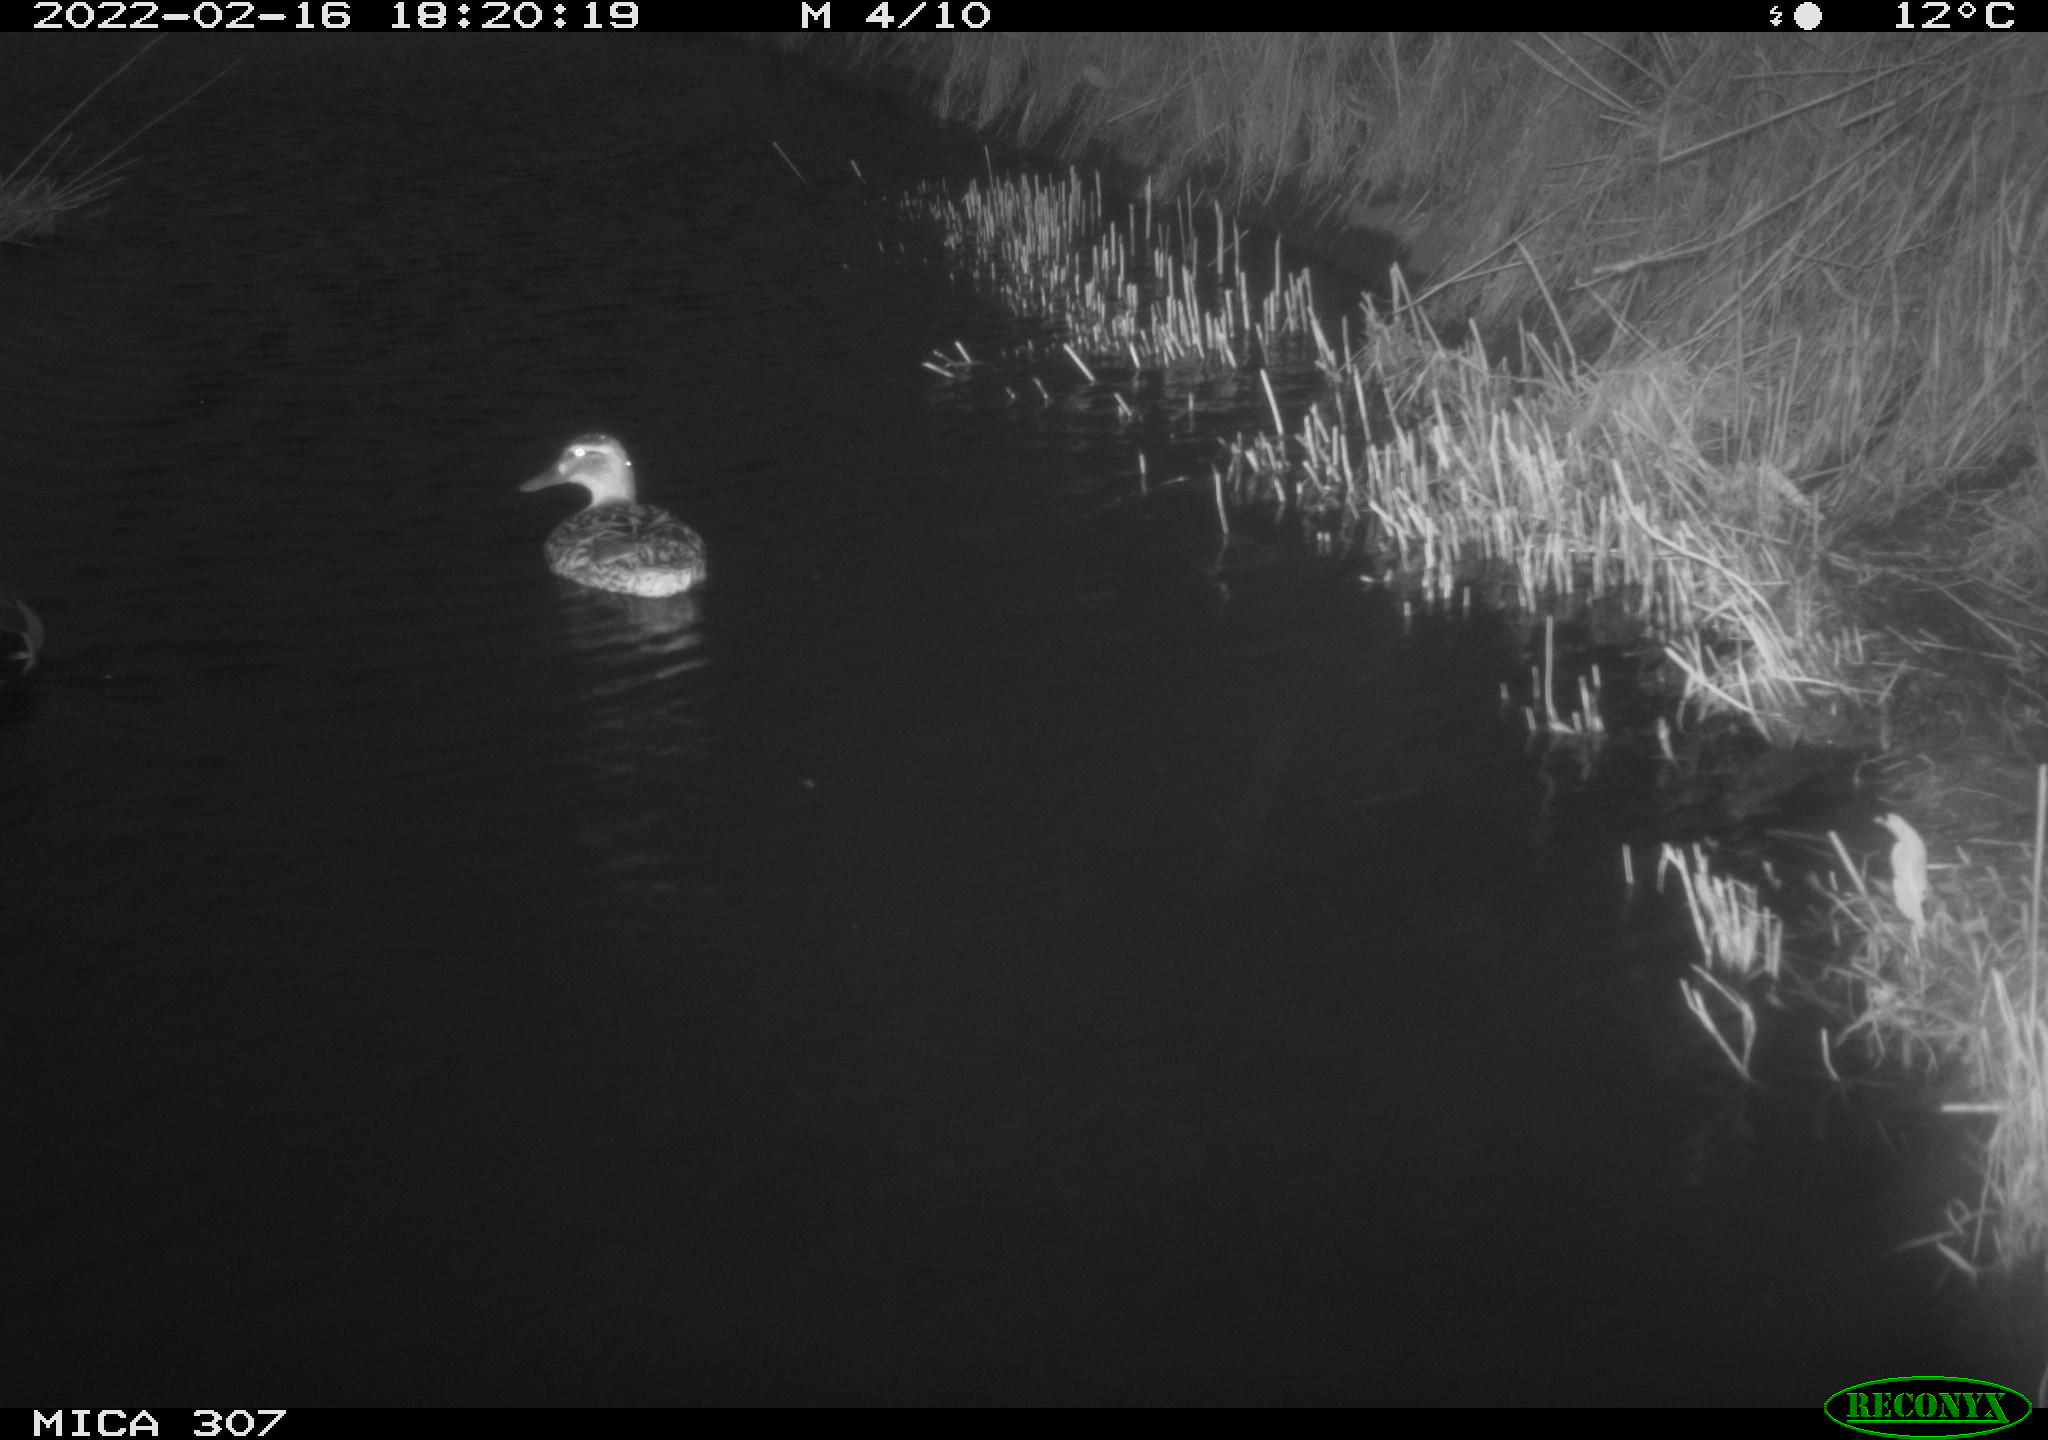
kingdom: Animalia
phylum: Chordata
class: Aves
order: Anseriformes
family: Anatidae
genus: Anas
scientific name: Anas platyrhynchos
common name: Mallard
